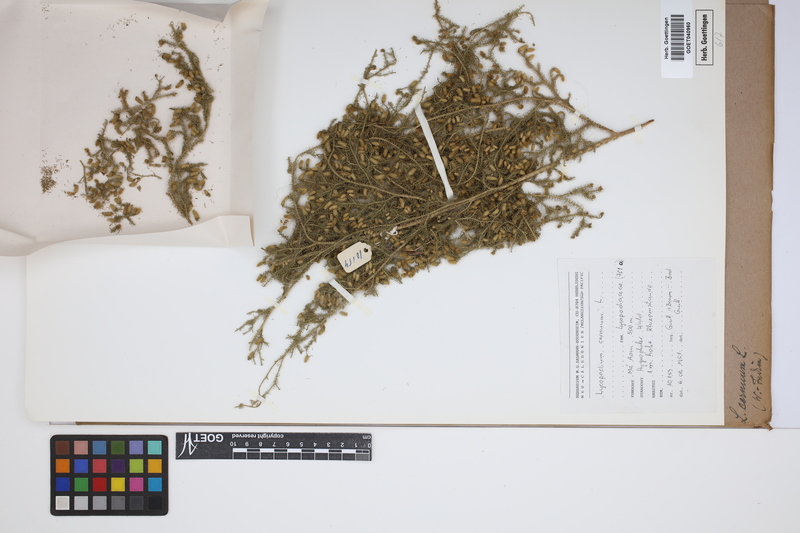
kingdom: Plantae
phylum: Tracheophyta
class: Lycopodiopsida
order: Lycopodiales
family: Lycopodiaceae
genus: Palhinhaea
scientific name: Palhinhaea cernua
